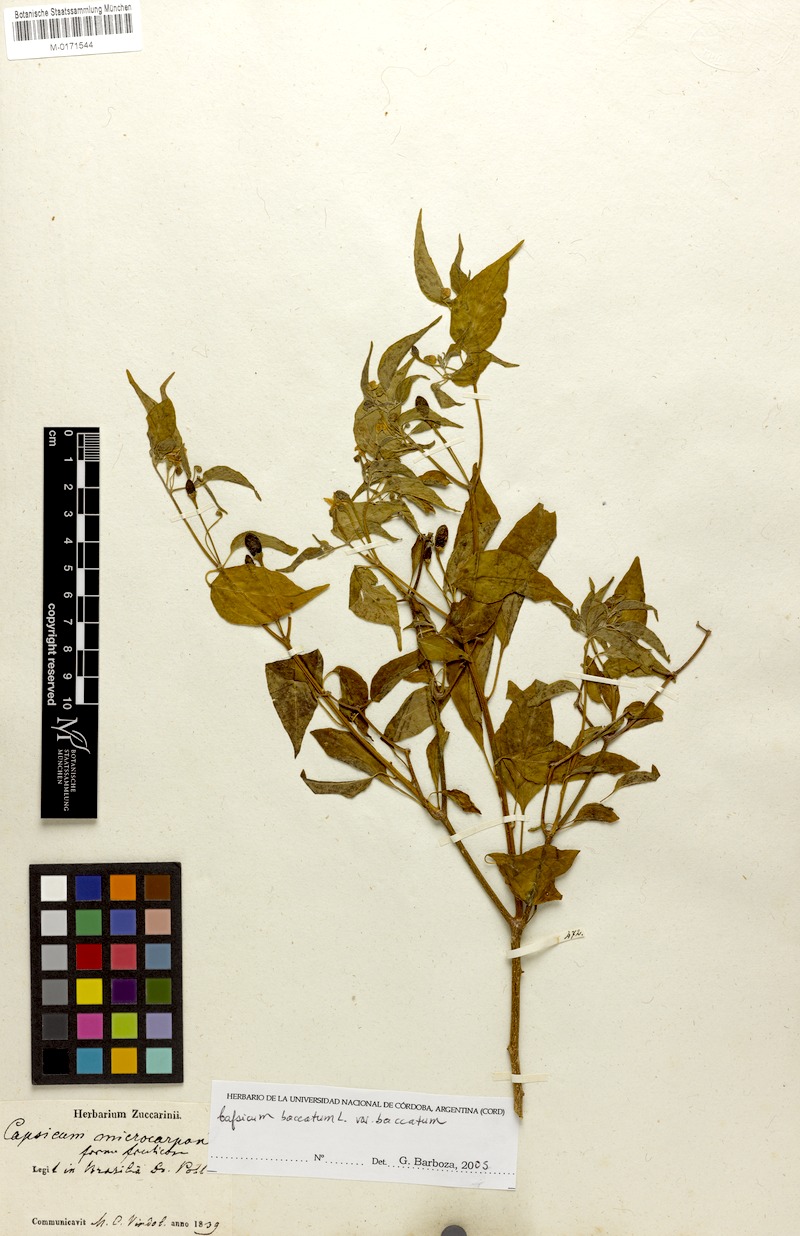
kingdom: Plantae
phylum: Tracheophyta
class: Magnoliopsida
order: Solanales
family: Solanaceae
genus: Capsicum
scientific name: Capsicum baccatum
